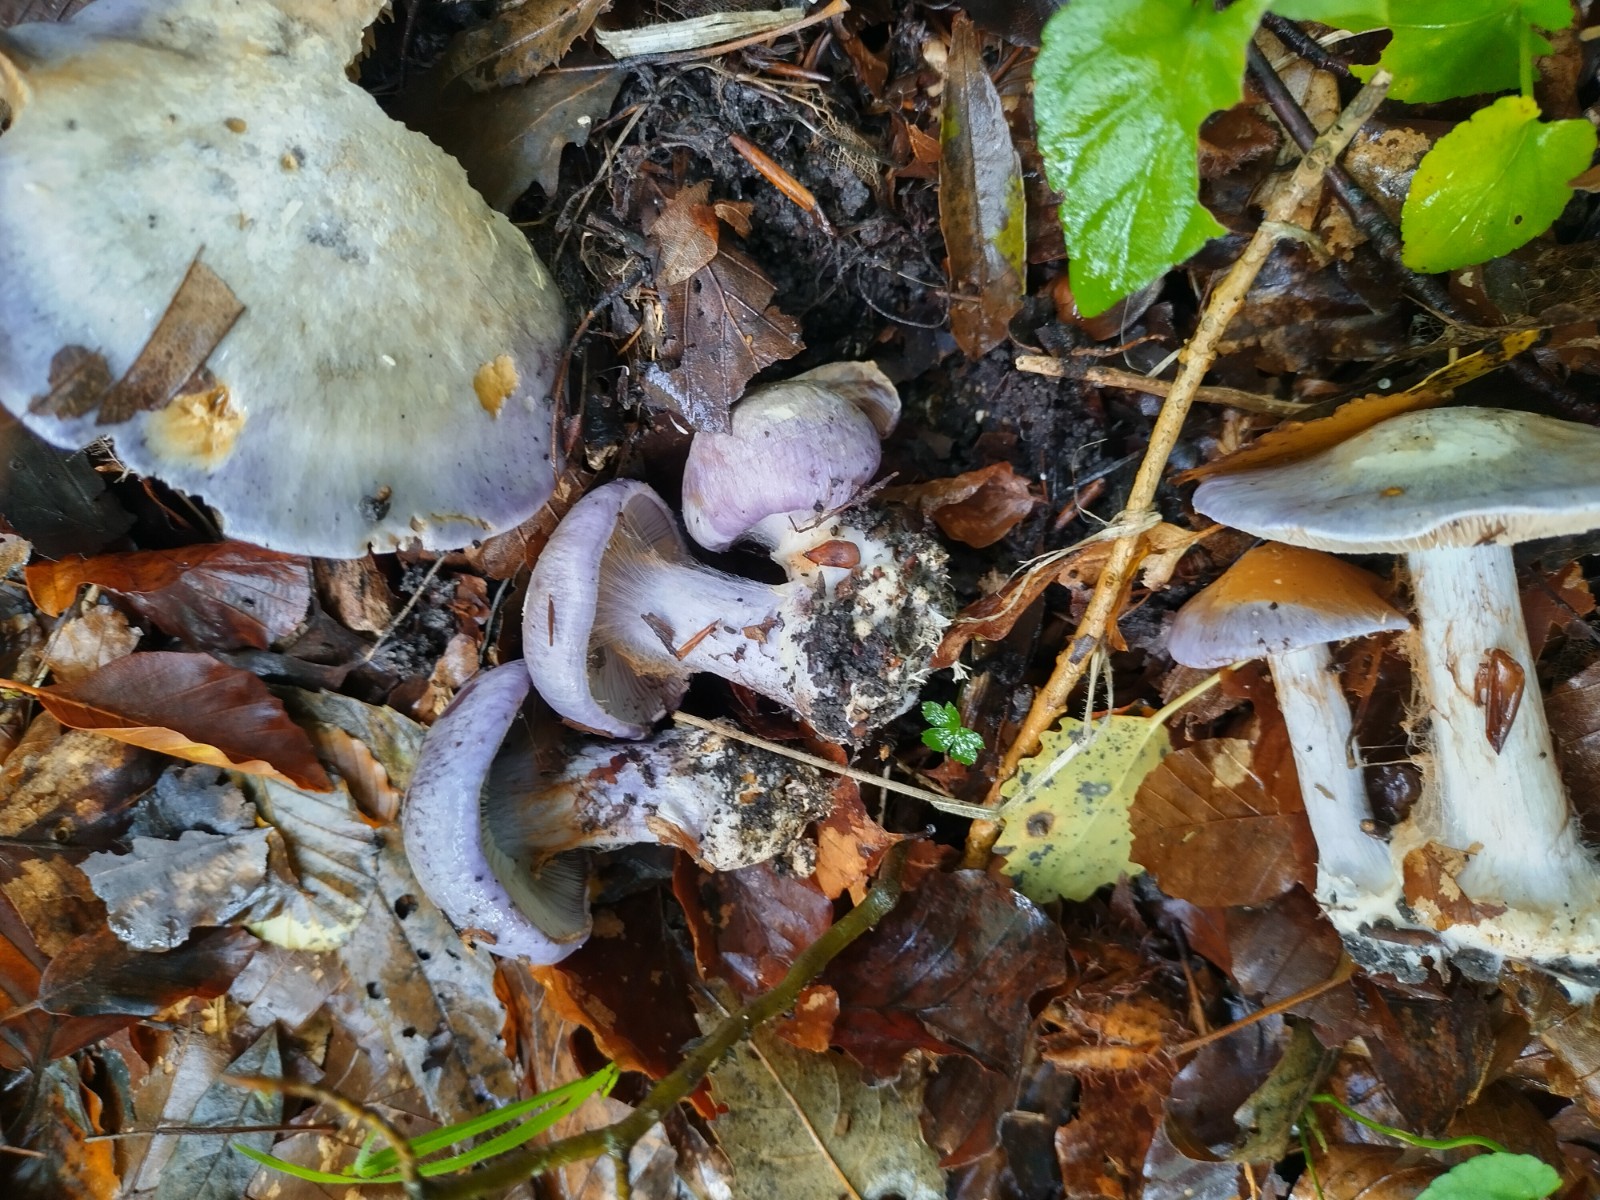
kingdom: Fungi
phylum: Basidiomycota
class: Agaricomycetes
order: Agaricales
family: Cortinariaceae
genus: Cortinarius
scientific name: Cortinarius caerulescens
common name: blåkødet slørhat
